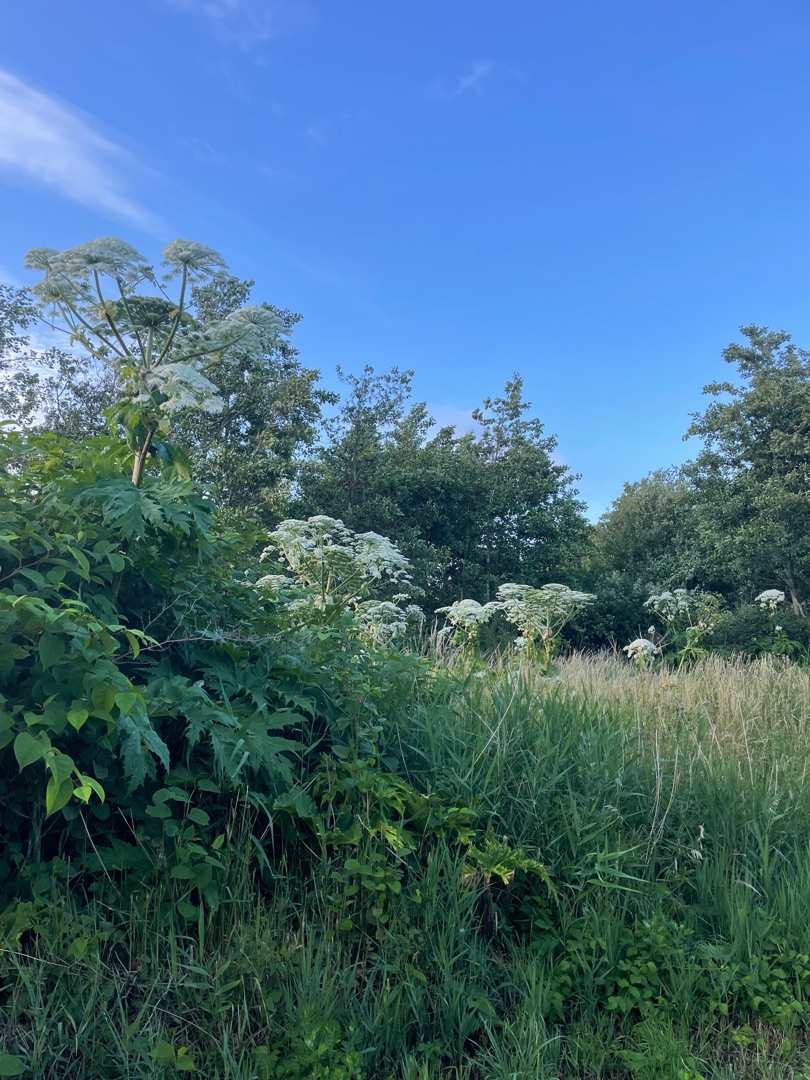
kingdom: Plantae
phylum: Tracheophyta
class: Magnoliopsida
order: Apiales
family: Apiaceae
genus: Heracleum
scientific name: Heracleum mantegazzianum
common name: Kæmpe-bjørneklo
